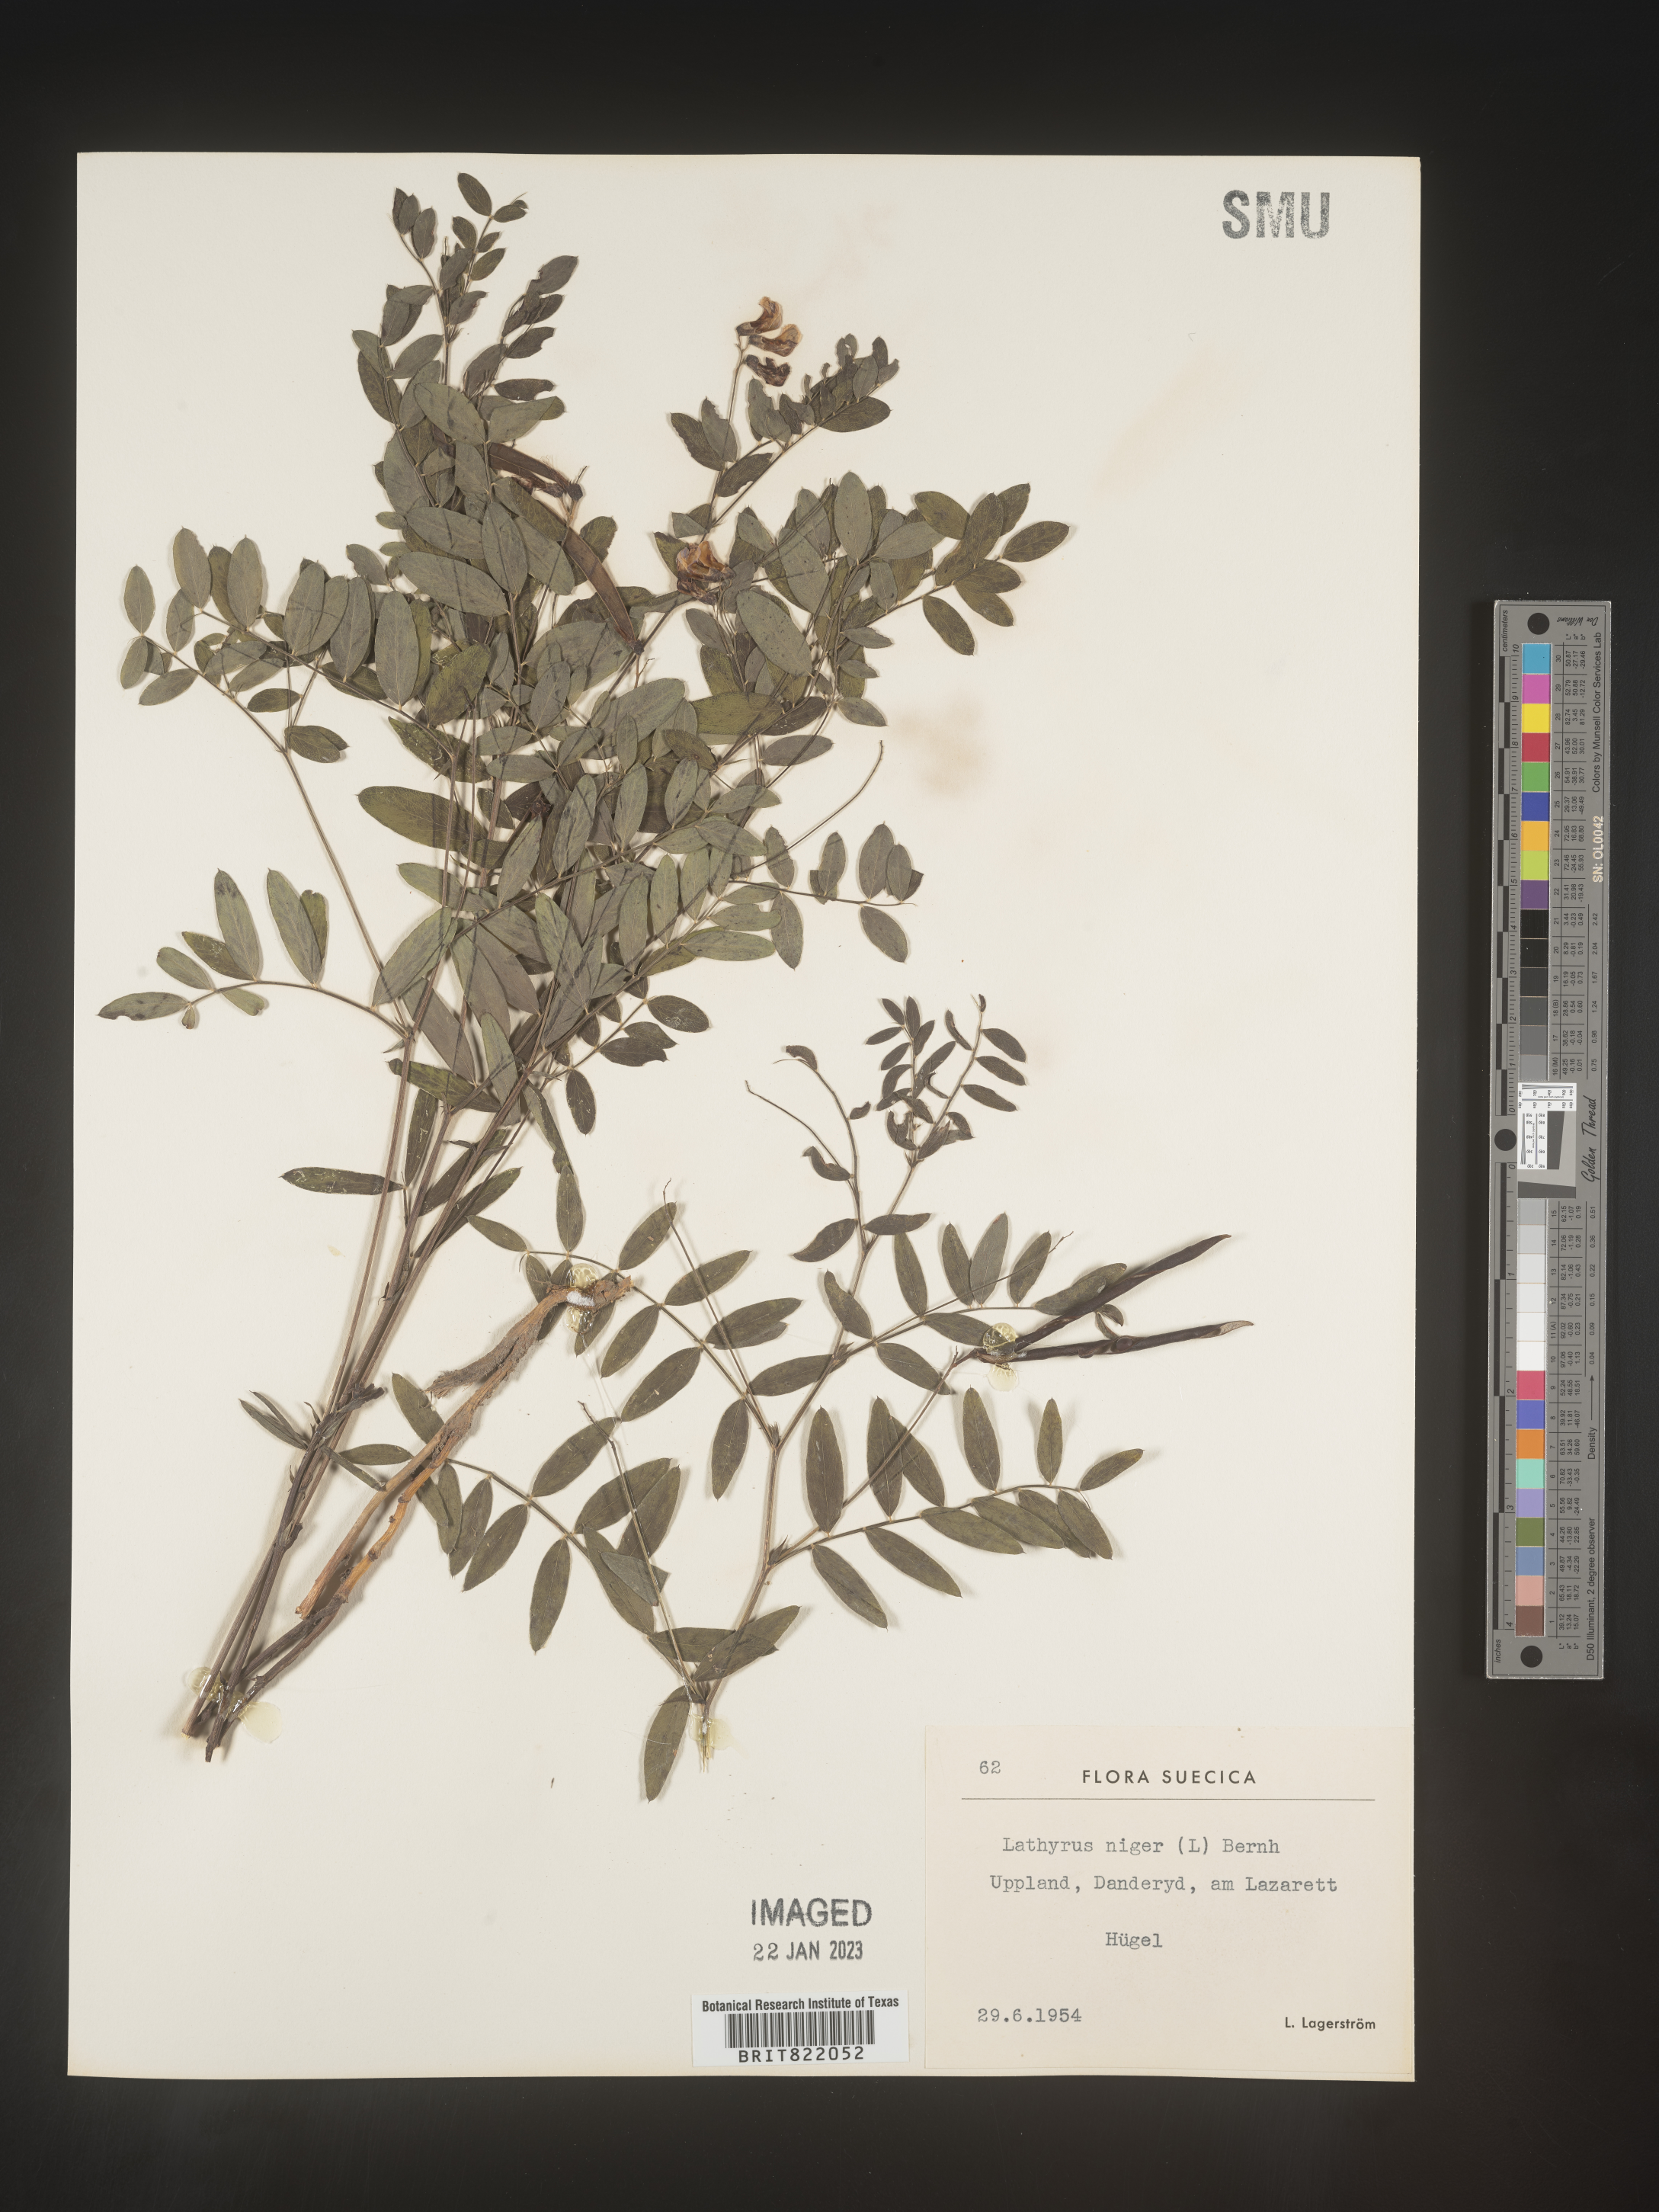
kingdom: Plantae
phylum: Tracheophyta
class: Magnoliopsida
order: Fabales
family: Fabaceae
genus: Lathyrus
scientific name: Lathyrus
